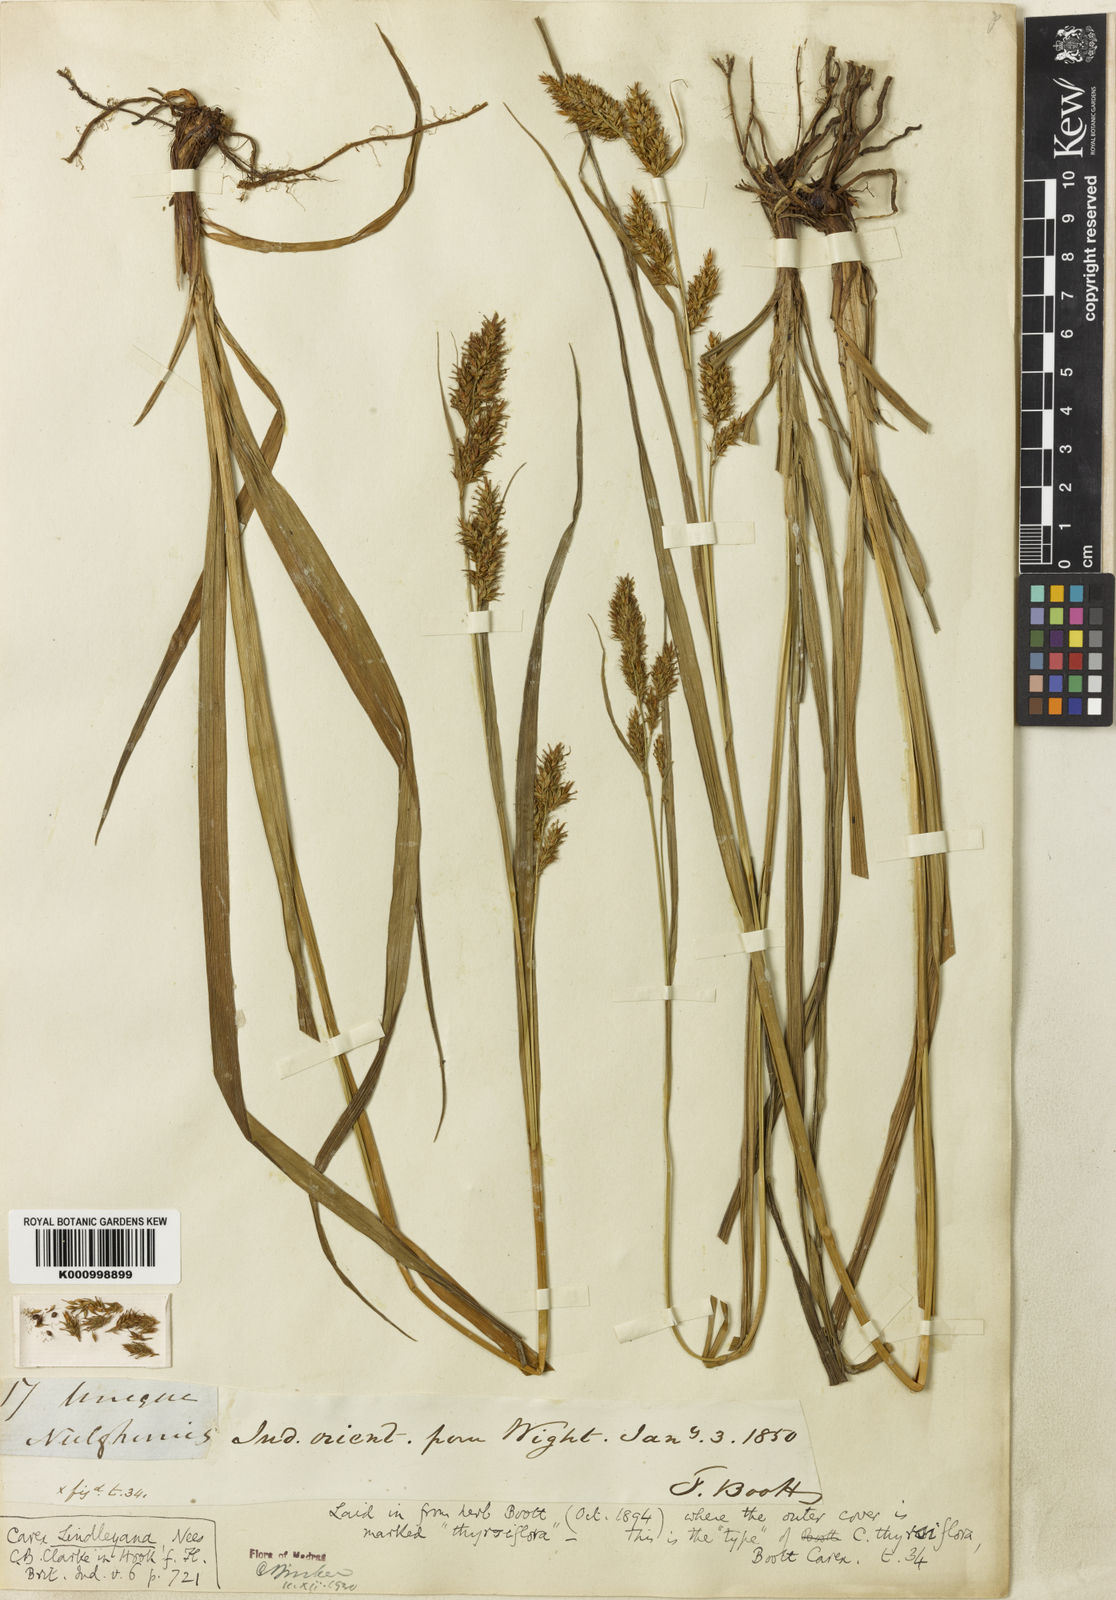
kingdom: Plantae
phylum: Tracheophyta
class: Liliopsida
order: Poales
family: Cyperaceae
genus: Carex
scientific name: Carex lindleyana
